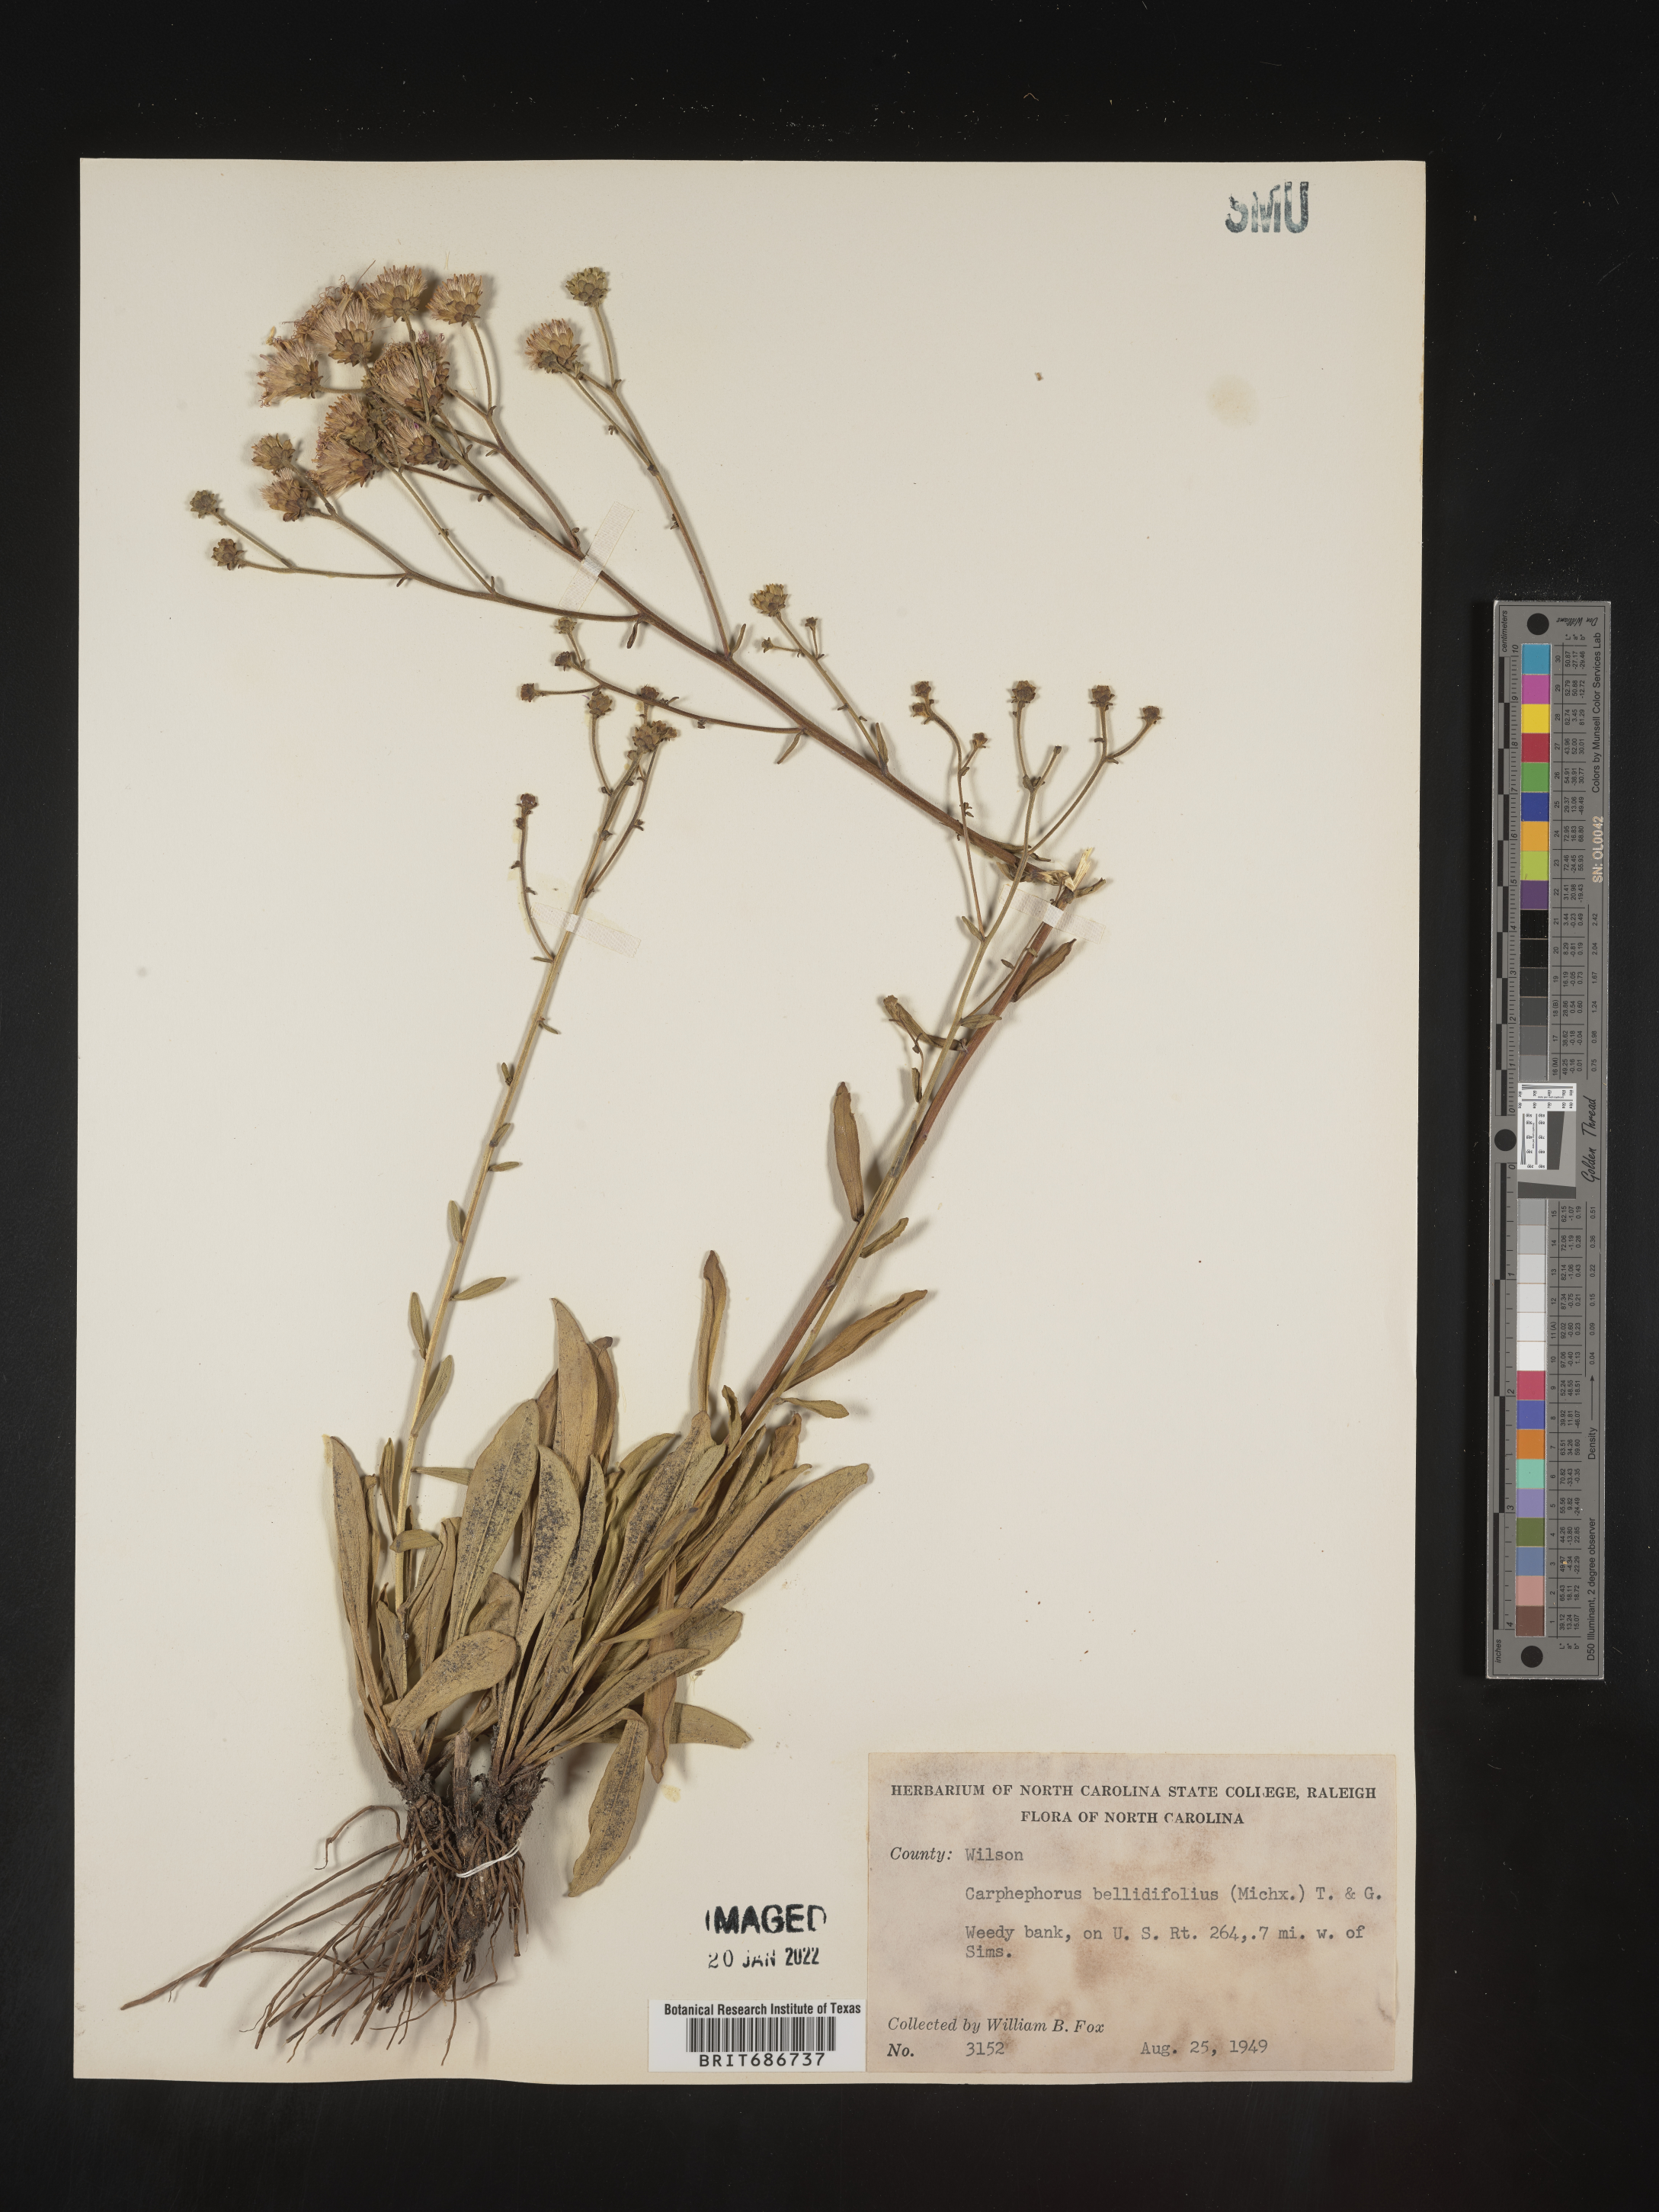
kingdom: Plantae
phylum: Tracheophyta
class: Magnoliopsida
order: Asterales
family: Asteraceae
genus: Carphephorus
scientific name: Carphephorus bellidifolius
